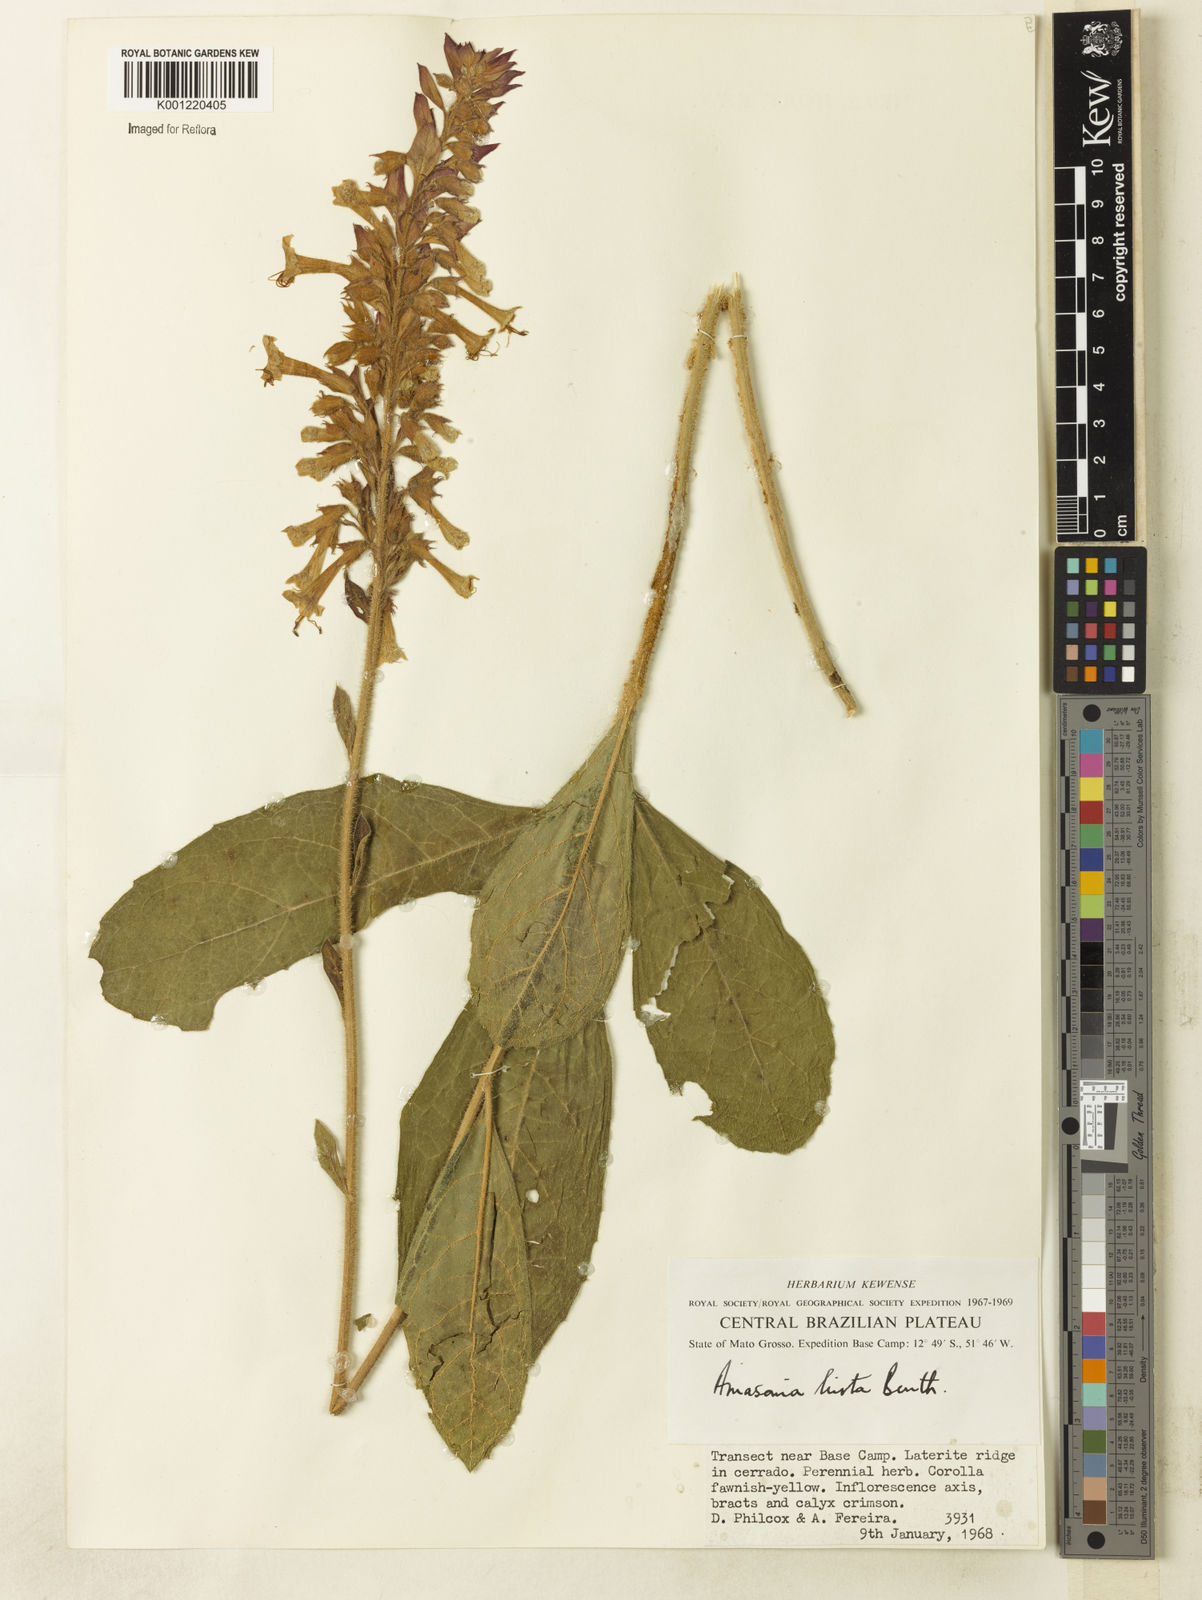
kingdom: Plantae
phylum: Tracheophyta
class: Magnoliopsida
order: Lamiales
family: Lamiaceae
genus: Amasonia
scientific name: Amasonia hirta
